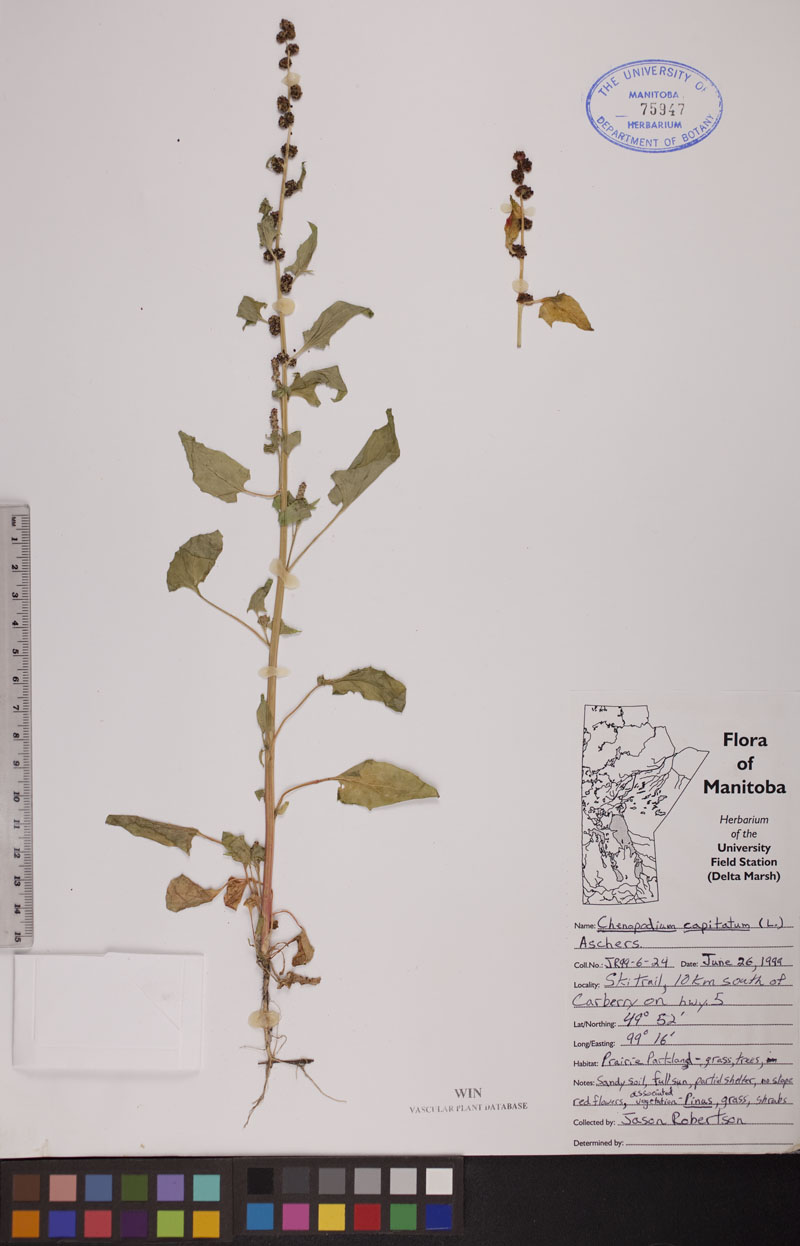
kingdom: Plantae
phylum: Tracheophyta
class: Magnoliopsida
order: Caryophyllales
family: Amaranthaceae
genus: Blitum
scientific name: Blitum capitatum
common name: Strawberry-blight
